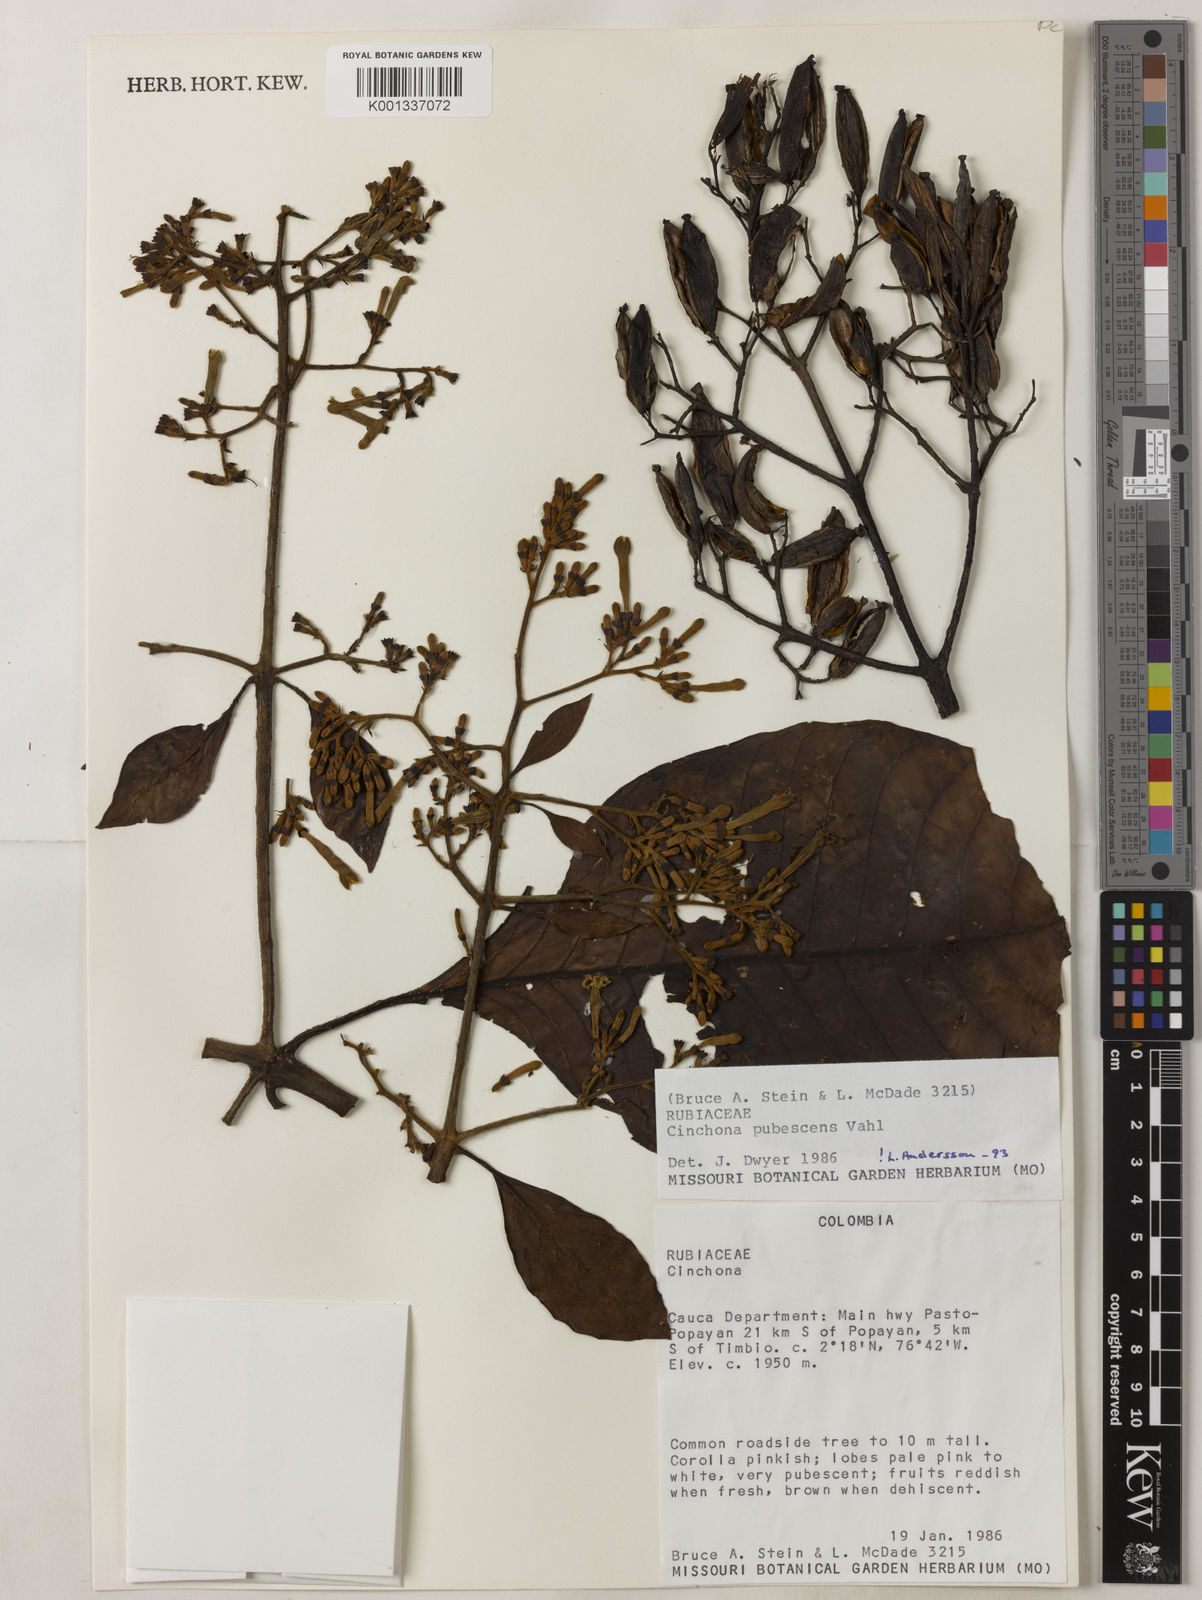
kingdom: Plantae
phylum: Tracheophyta
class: Magnoliopsida
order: Gentianales
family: Rubiaceae
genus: Cinchona
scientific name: Cinchona pubescens
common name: Quinine
